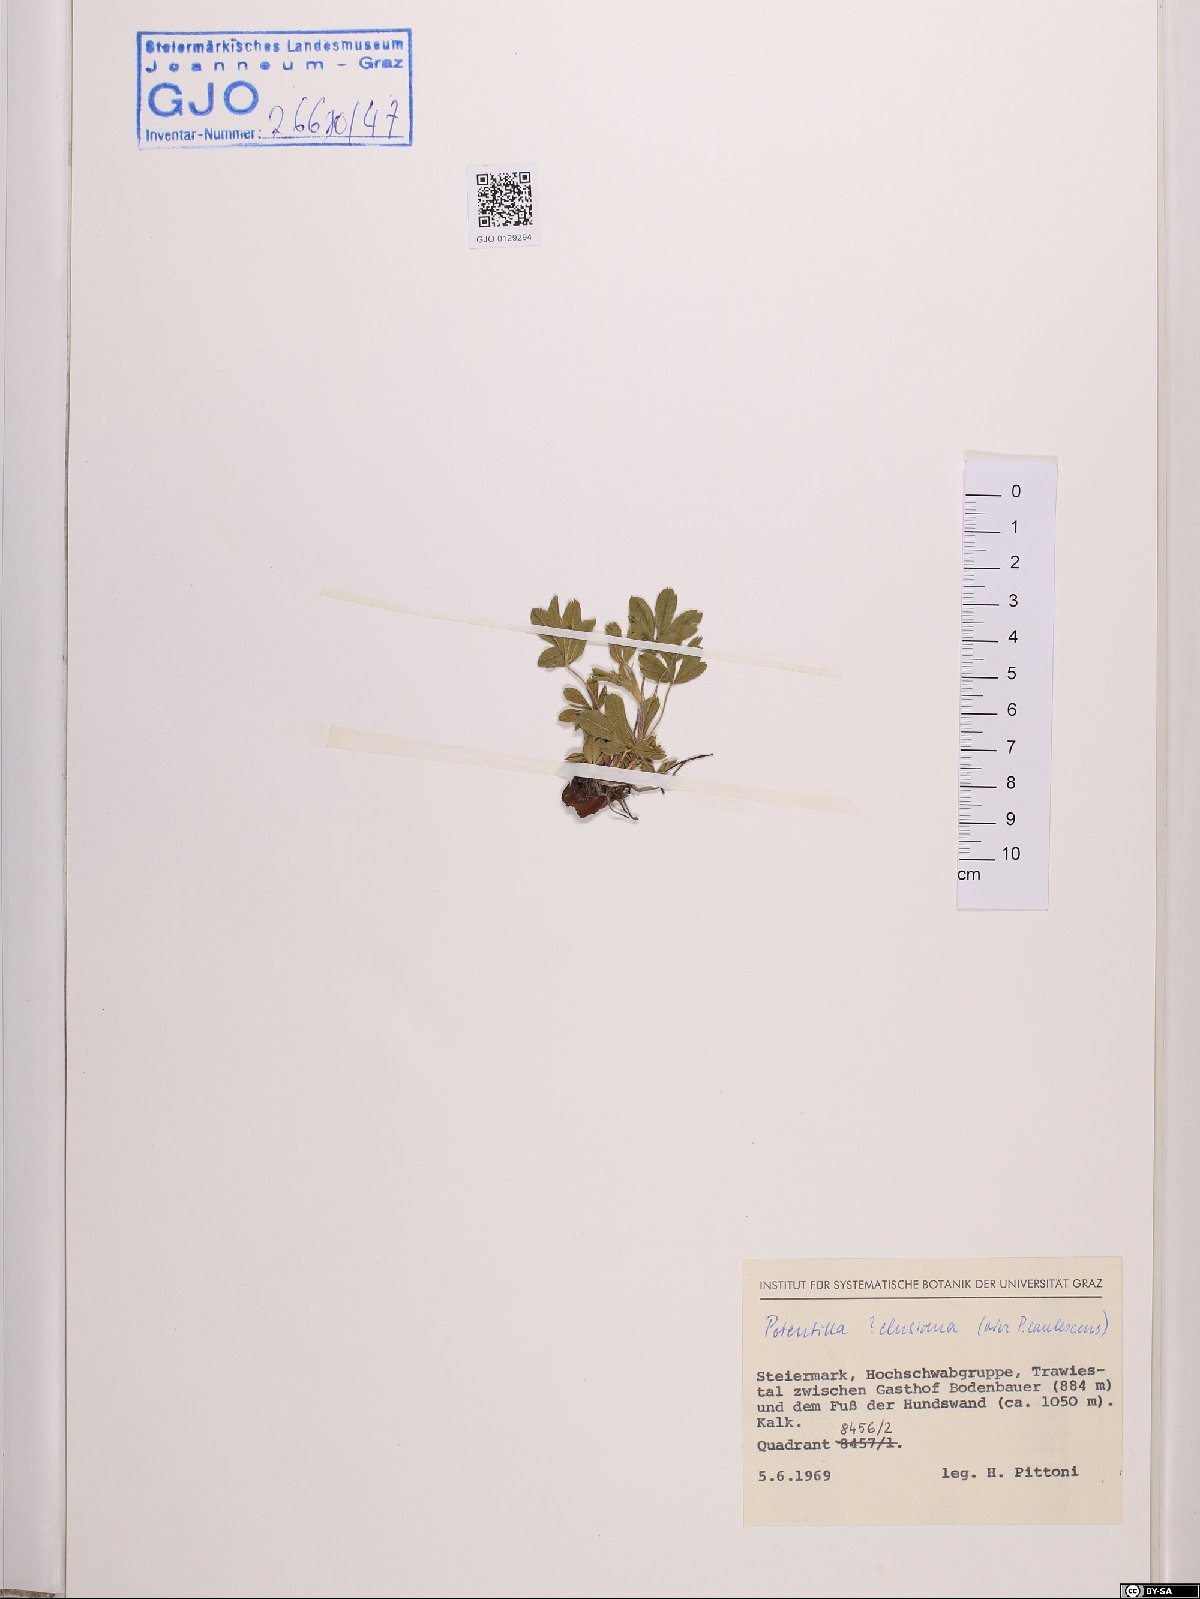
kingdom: Plantae
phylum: Tracheophyta
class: Magnoliopsida
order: Rosales
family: Rosaceae
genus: Potentilla
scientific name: Potentilla clusiana
